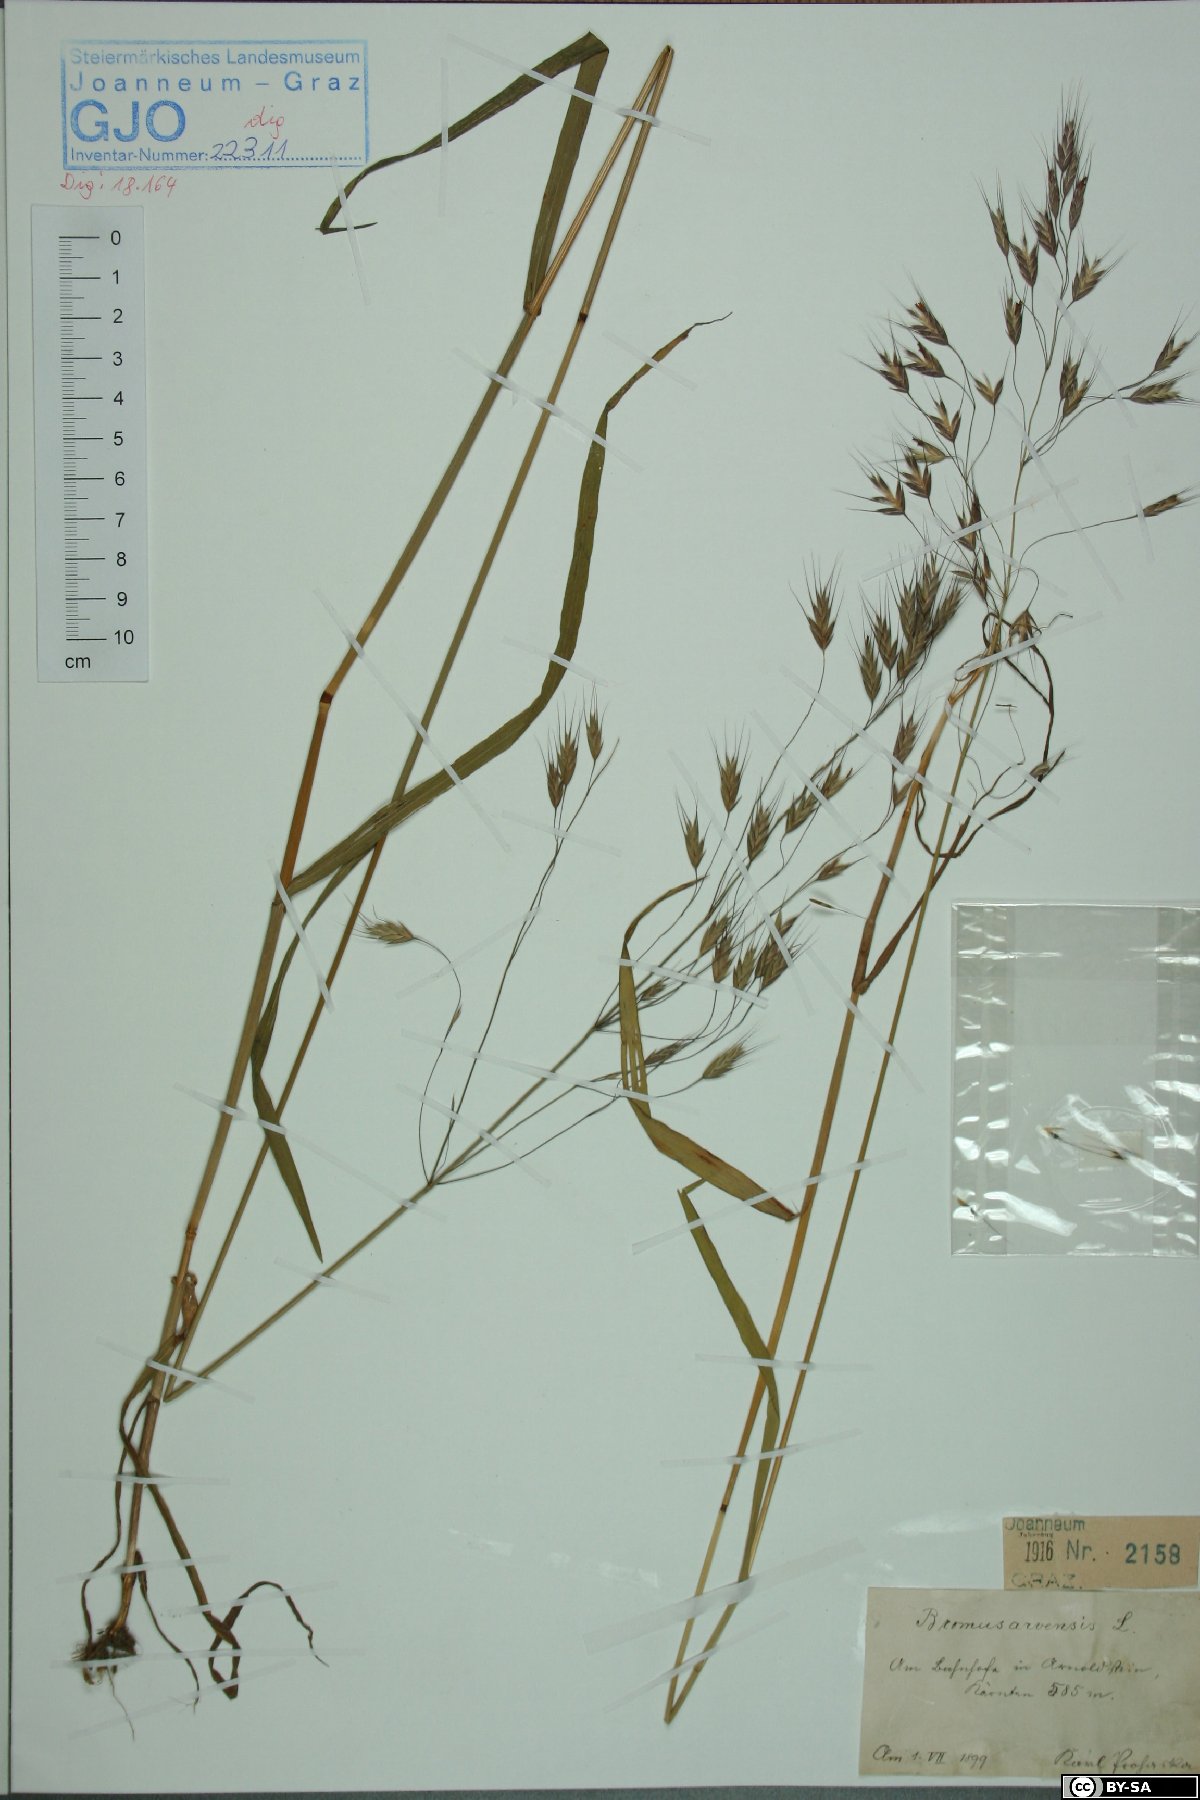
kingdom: Plantae
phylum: Tracheophyta
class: Liliopsida
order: Poales
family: Poaceae
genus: Bromus
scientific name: Bromus arvensis
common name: Field brome
